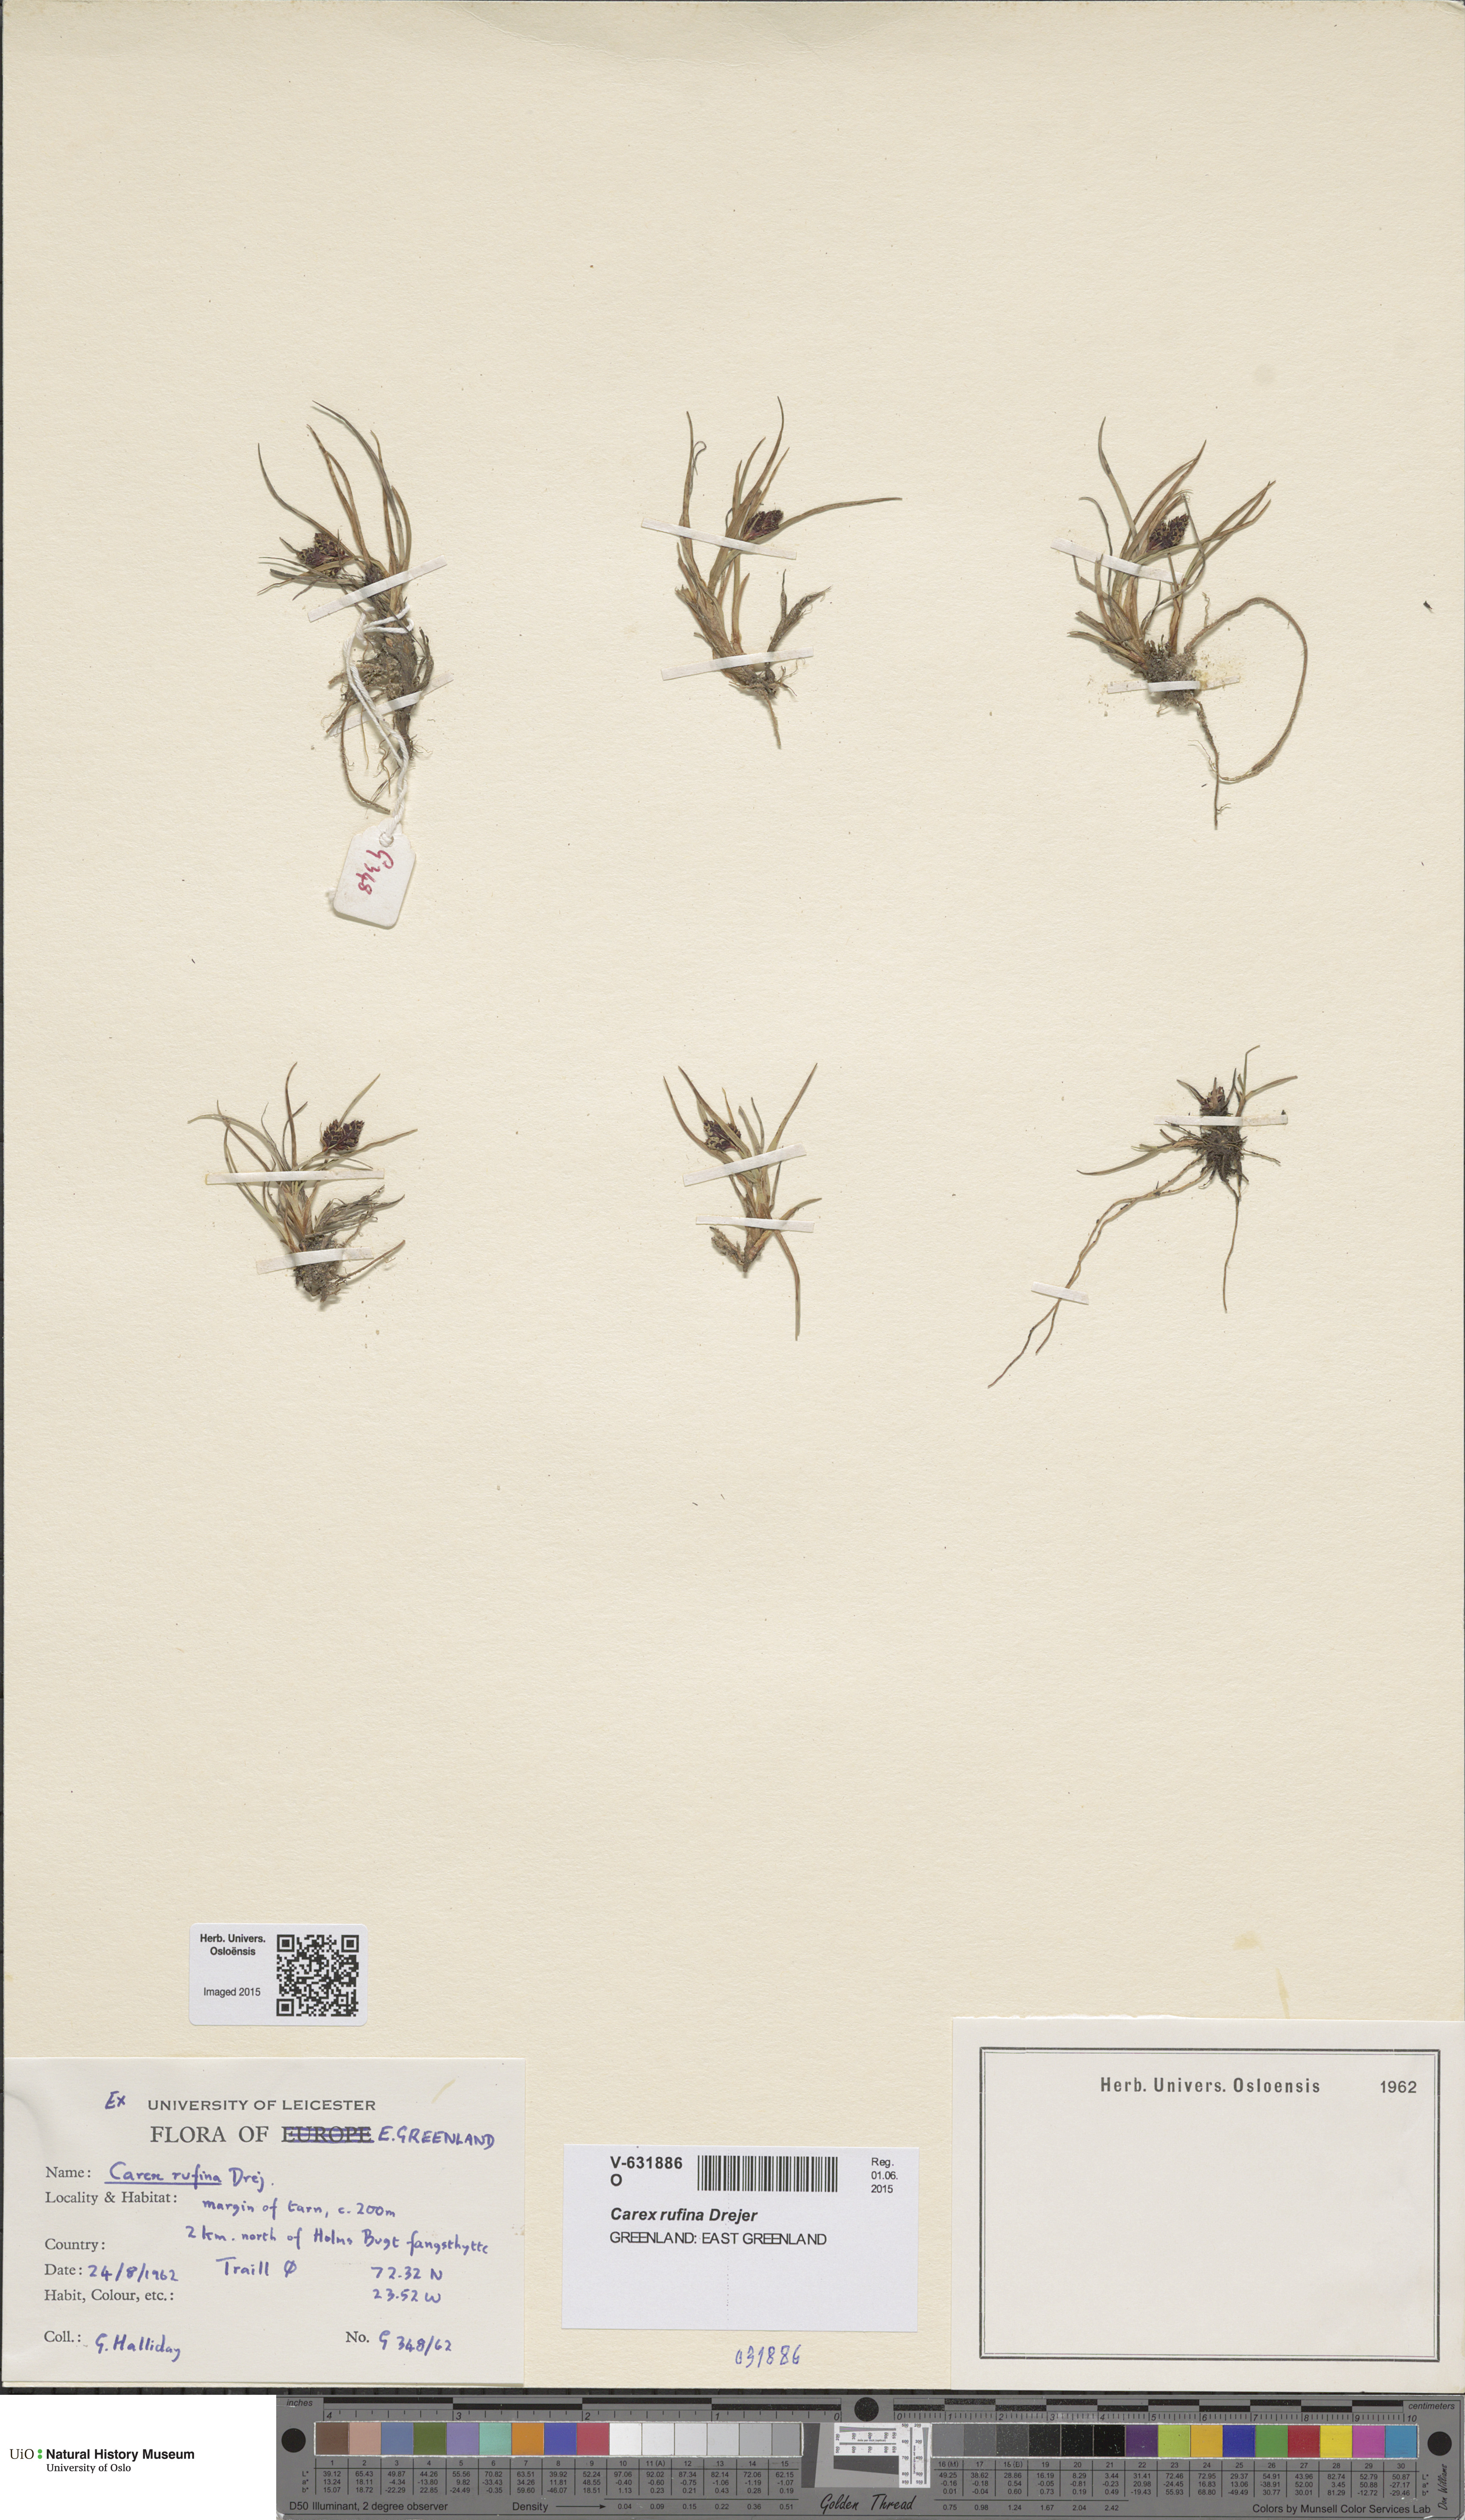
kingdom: Plantae
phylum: Tracheophyta
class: Liliopsida
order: Poales
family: Cyperaceae
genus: Carex
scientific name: Carex rufina
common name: Reddish sedge
